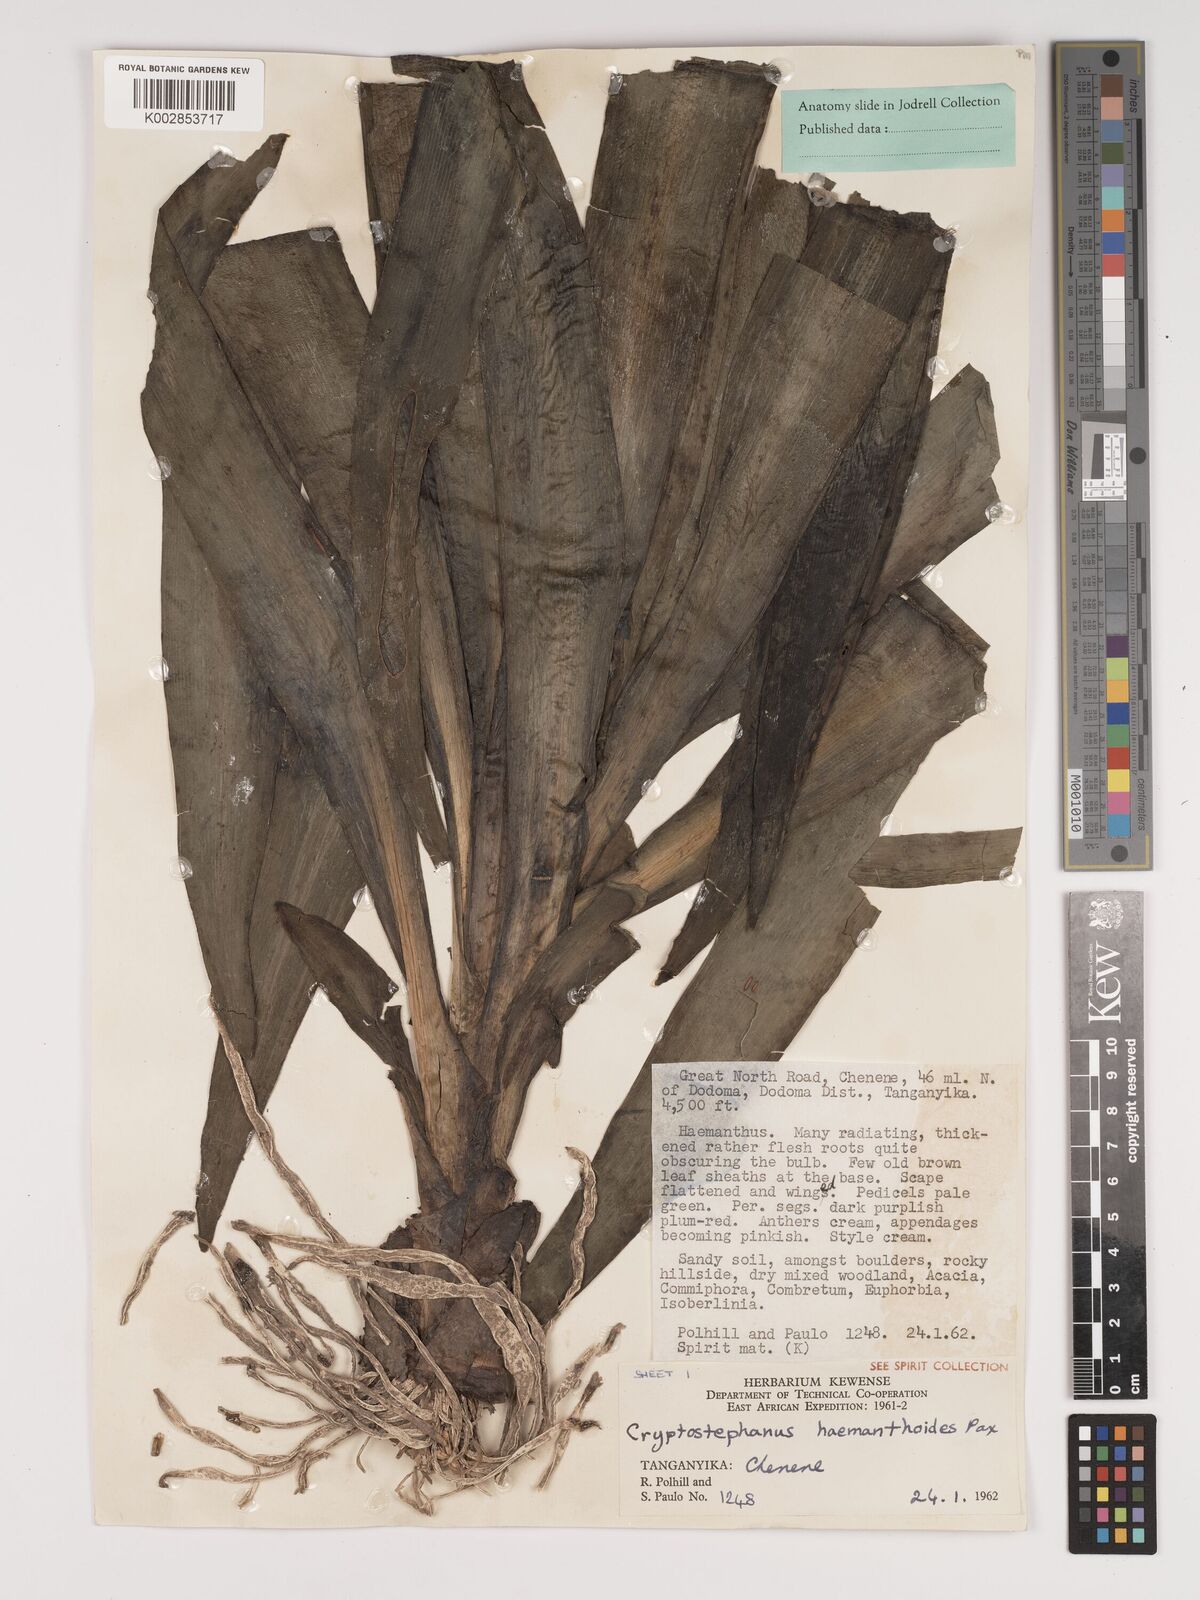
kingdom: Plantae
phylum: Tracheophyta
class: Liliopsida
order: Asparagales
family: Amaryllidaceae
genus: Cryptostephanus
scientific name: Cryptostephanus haemanthoides
